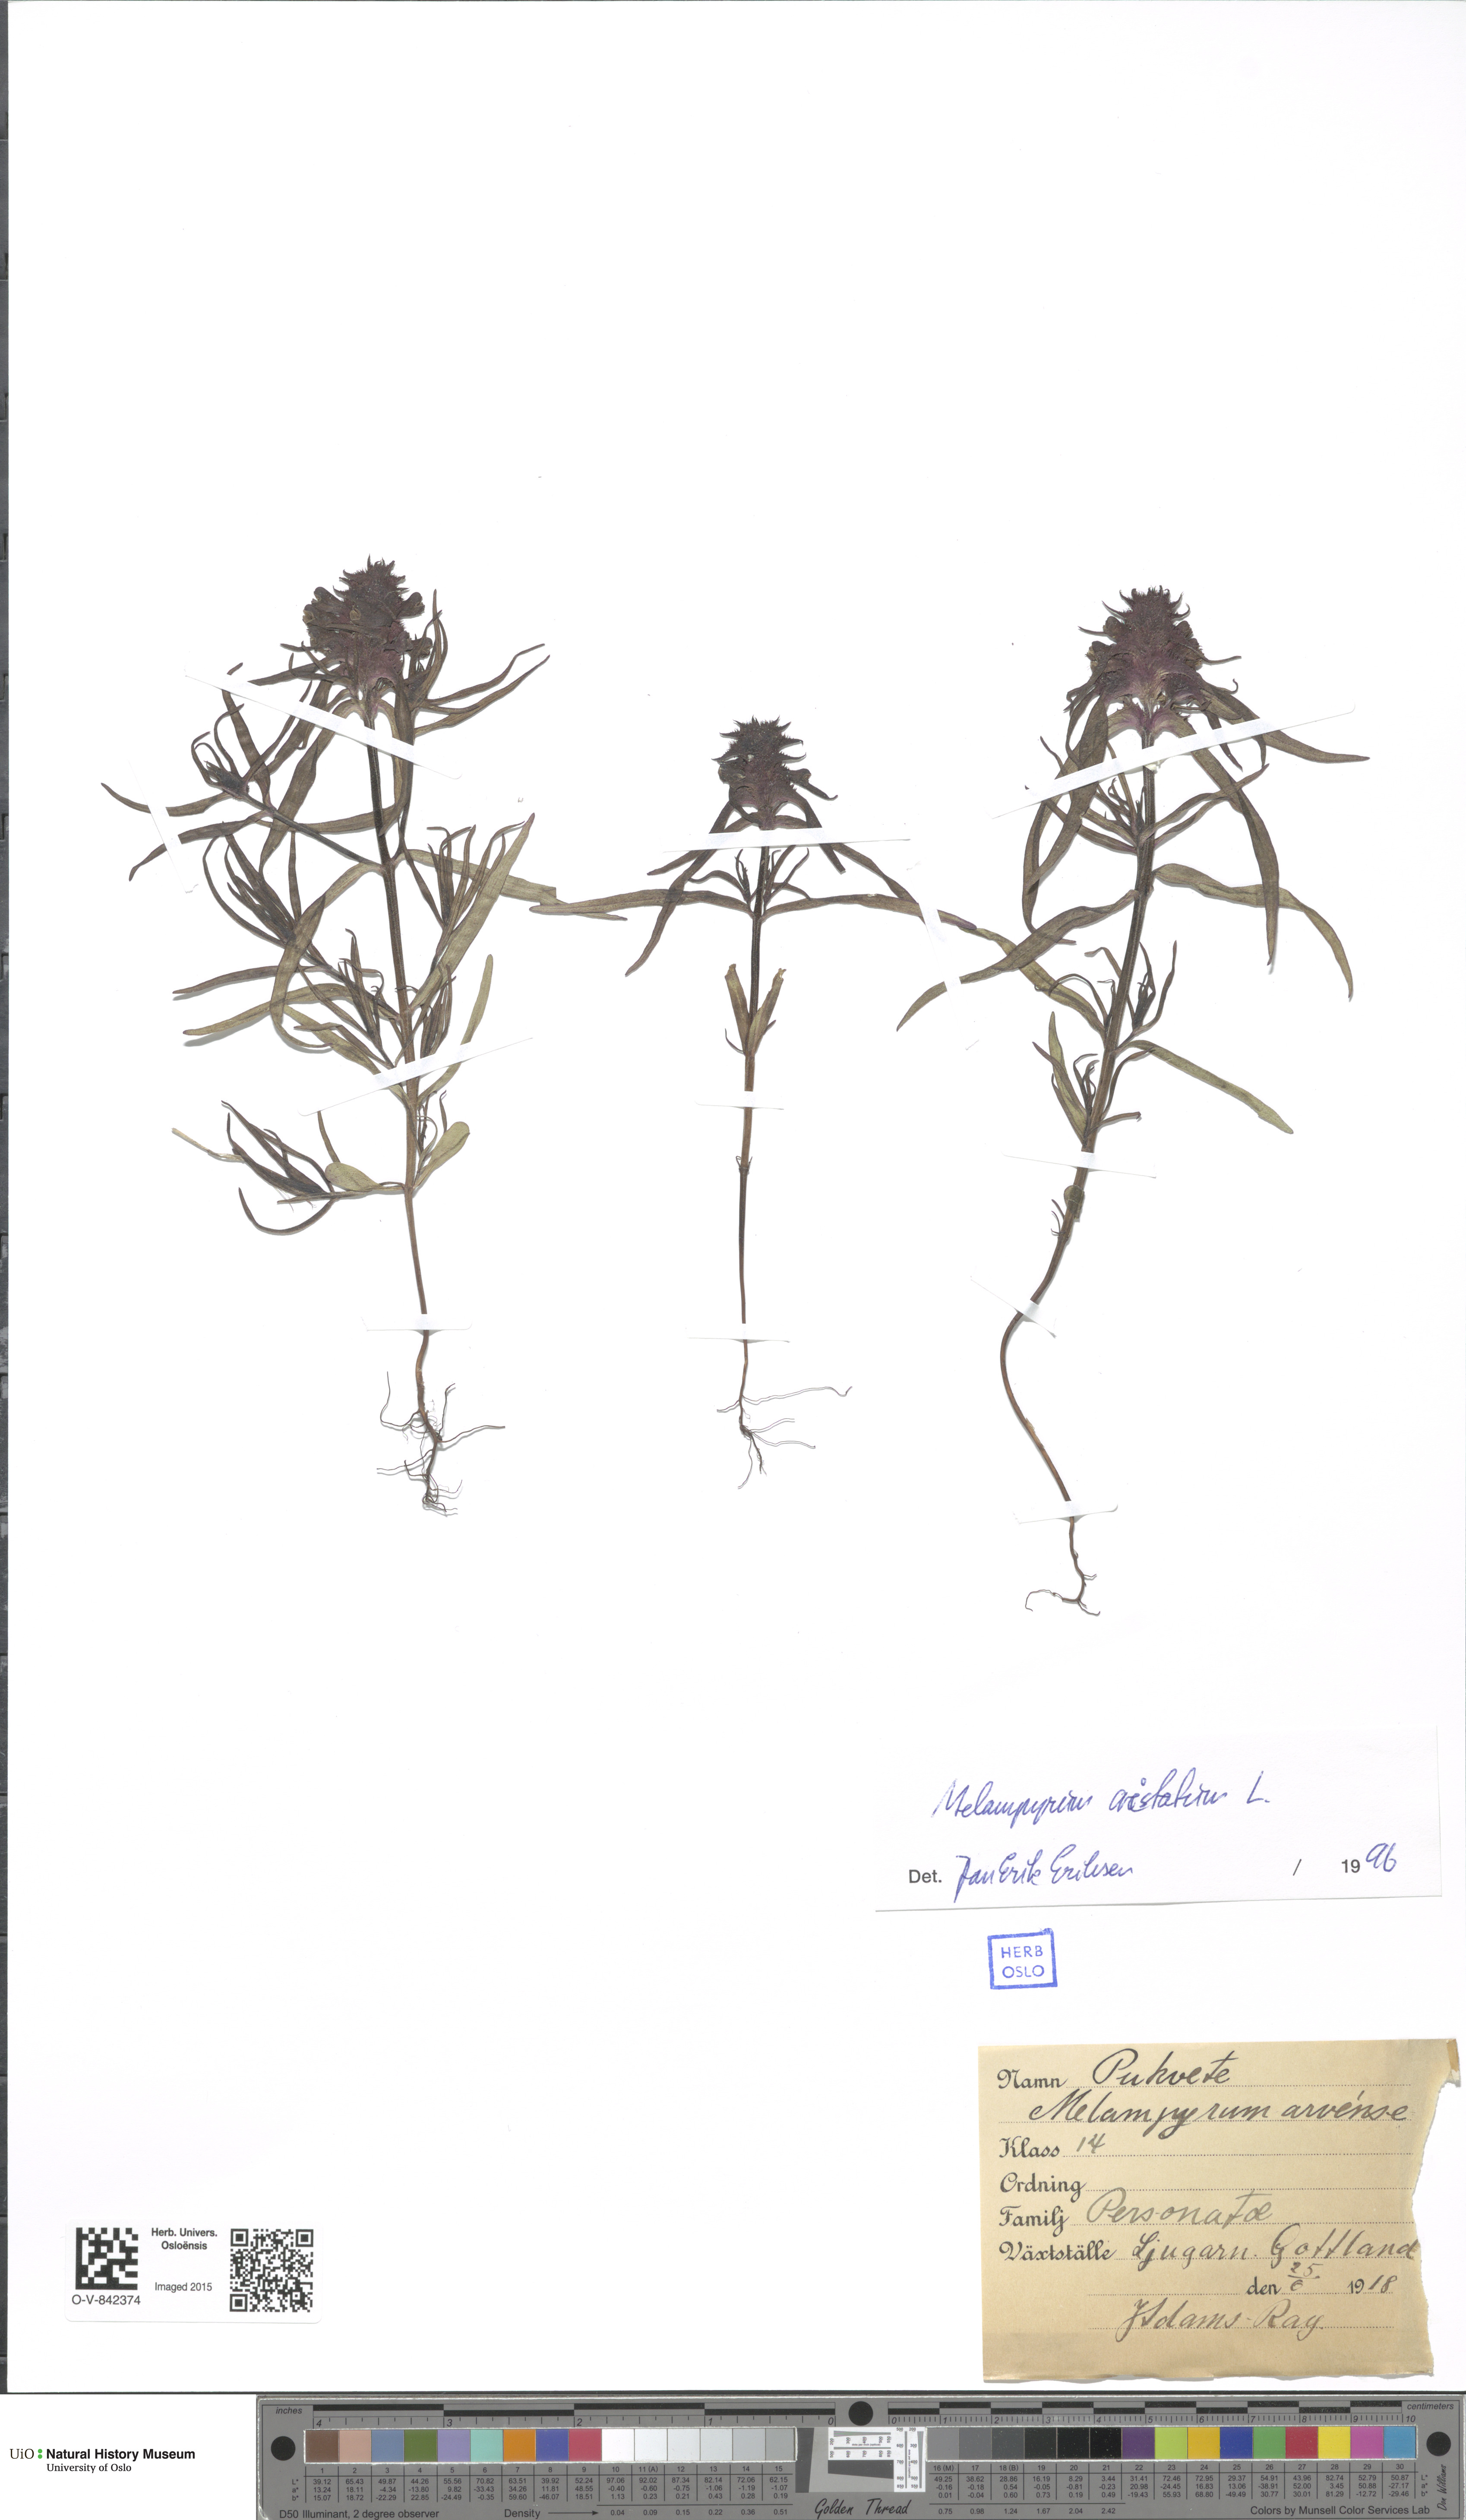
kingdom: Plantae
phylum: Tracheophyta
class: Magnoliopsida
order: Lamiales
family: Orobanchaceae
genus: Melampyrum
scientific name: Melampyrum cristatum
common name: Crested cow-wheat
